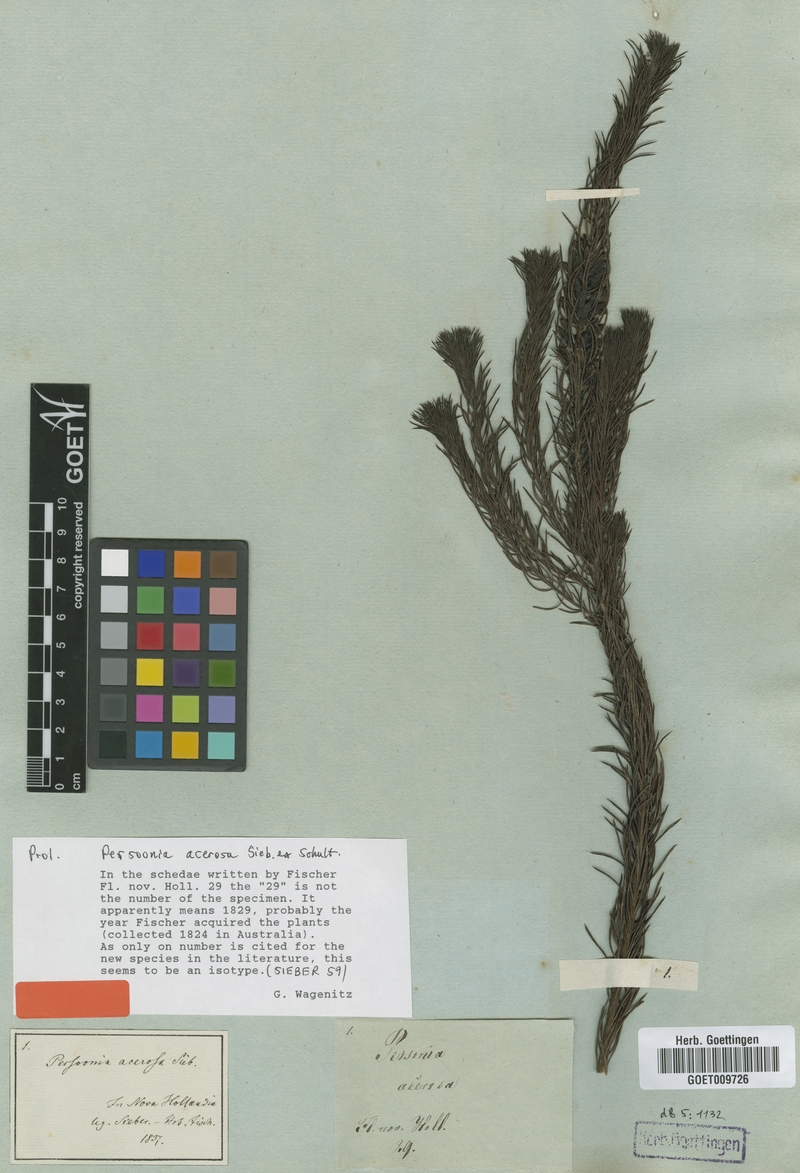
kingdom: Plantae
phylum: Tracheophyta
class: Magnoliopsida
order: Proteales
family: Proteaceae
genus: Persoonia
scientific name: Persoonia acerosa
